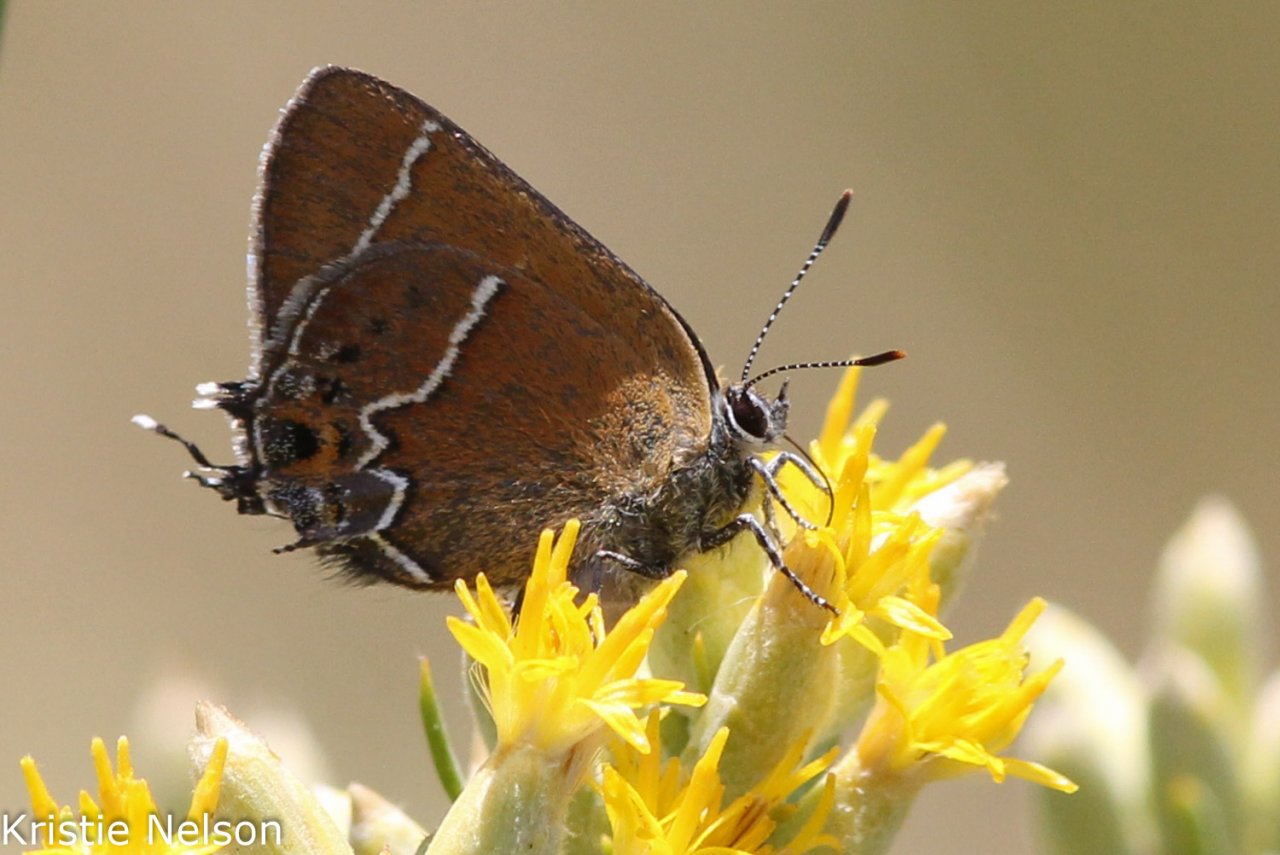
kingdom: Animalia
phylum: Arthropoda
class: Insecta
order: Lepidoptera
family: Lycaenidae
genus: Mitoura
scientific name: Mitoura spinetorum
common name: Thicket Hairstreak
